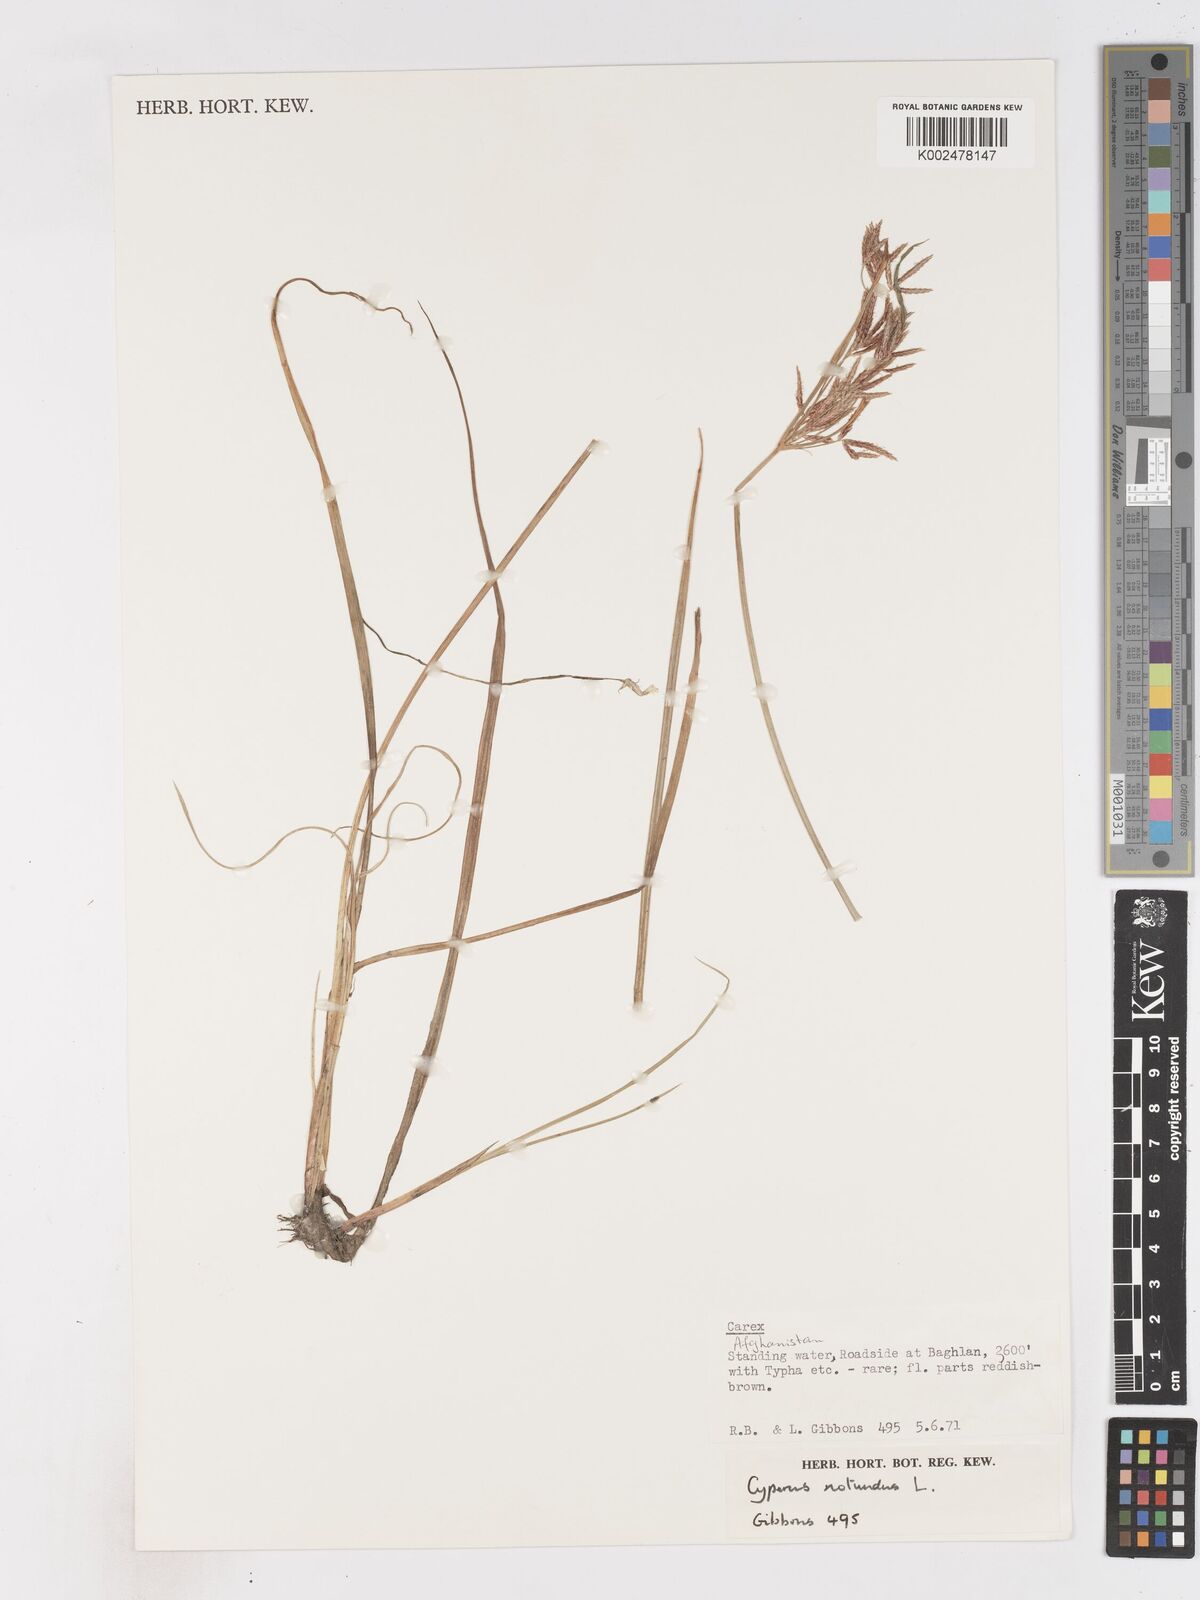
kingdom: Plantae
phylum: Tracheophyta
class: Liliopsida
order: Poales
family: Cyperaceae
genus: Cyperus
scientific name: Cyperus rotundus
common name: Nutgrass
